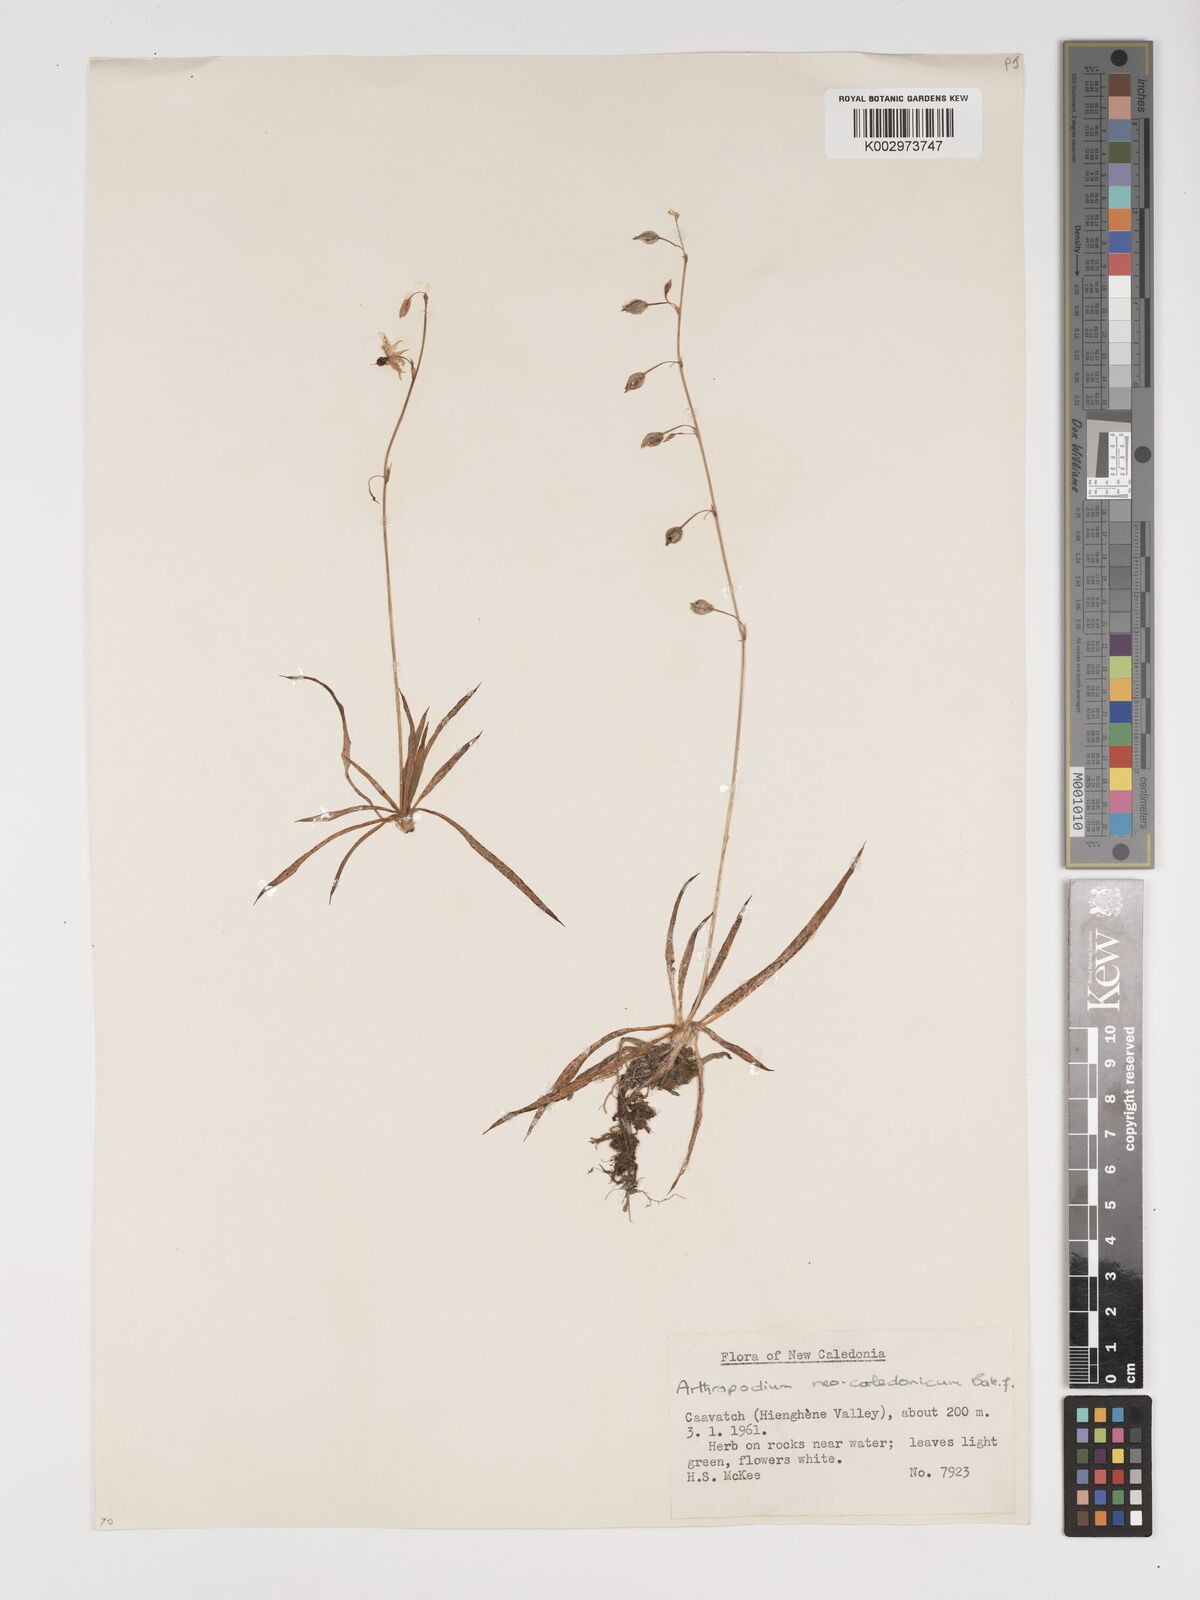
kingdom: Plantae
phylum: Tracheophyta
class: Liliopsida
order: Asparagales
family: Asparagaceae
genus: Arthropodium
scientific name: Arthropodium neocaledonicum
